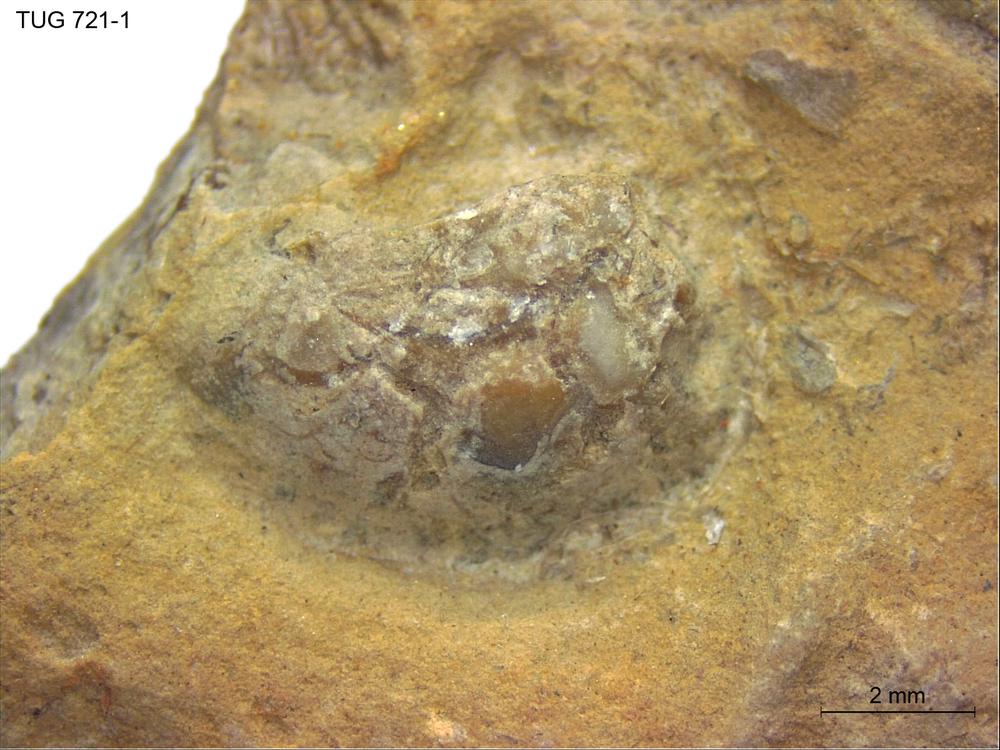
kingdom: Animalia
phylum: Mollusca
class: Bivalvia
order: Nuculida
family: Nuculidae
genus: Nuculoidea
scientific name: Nuculoidea
